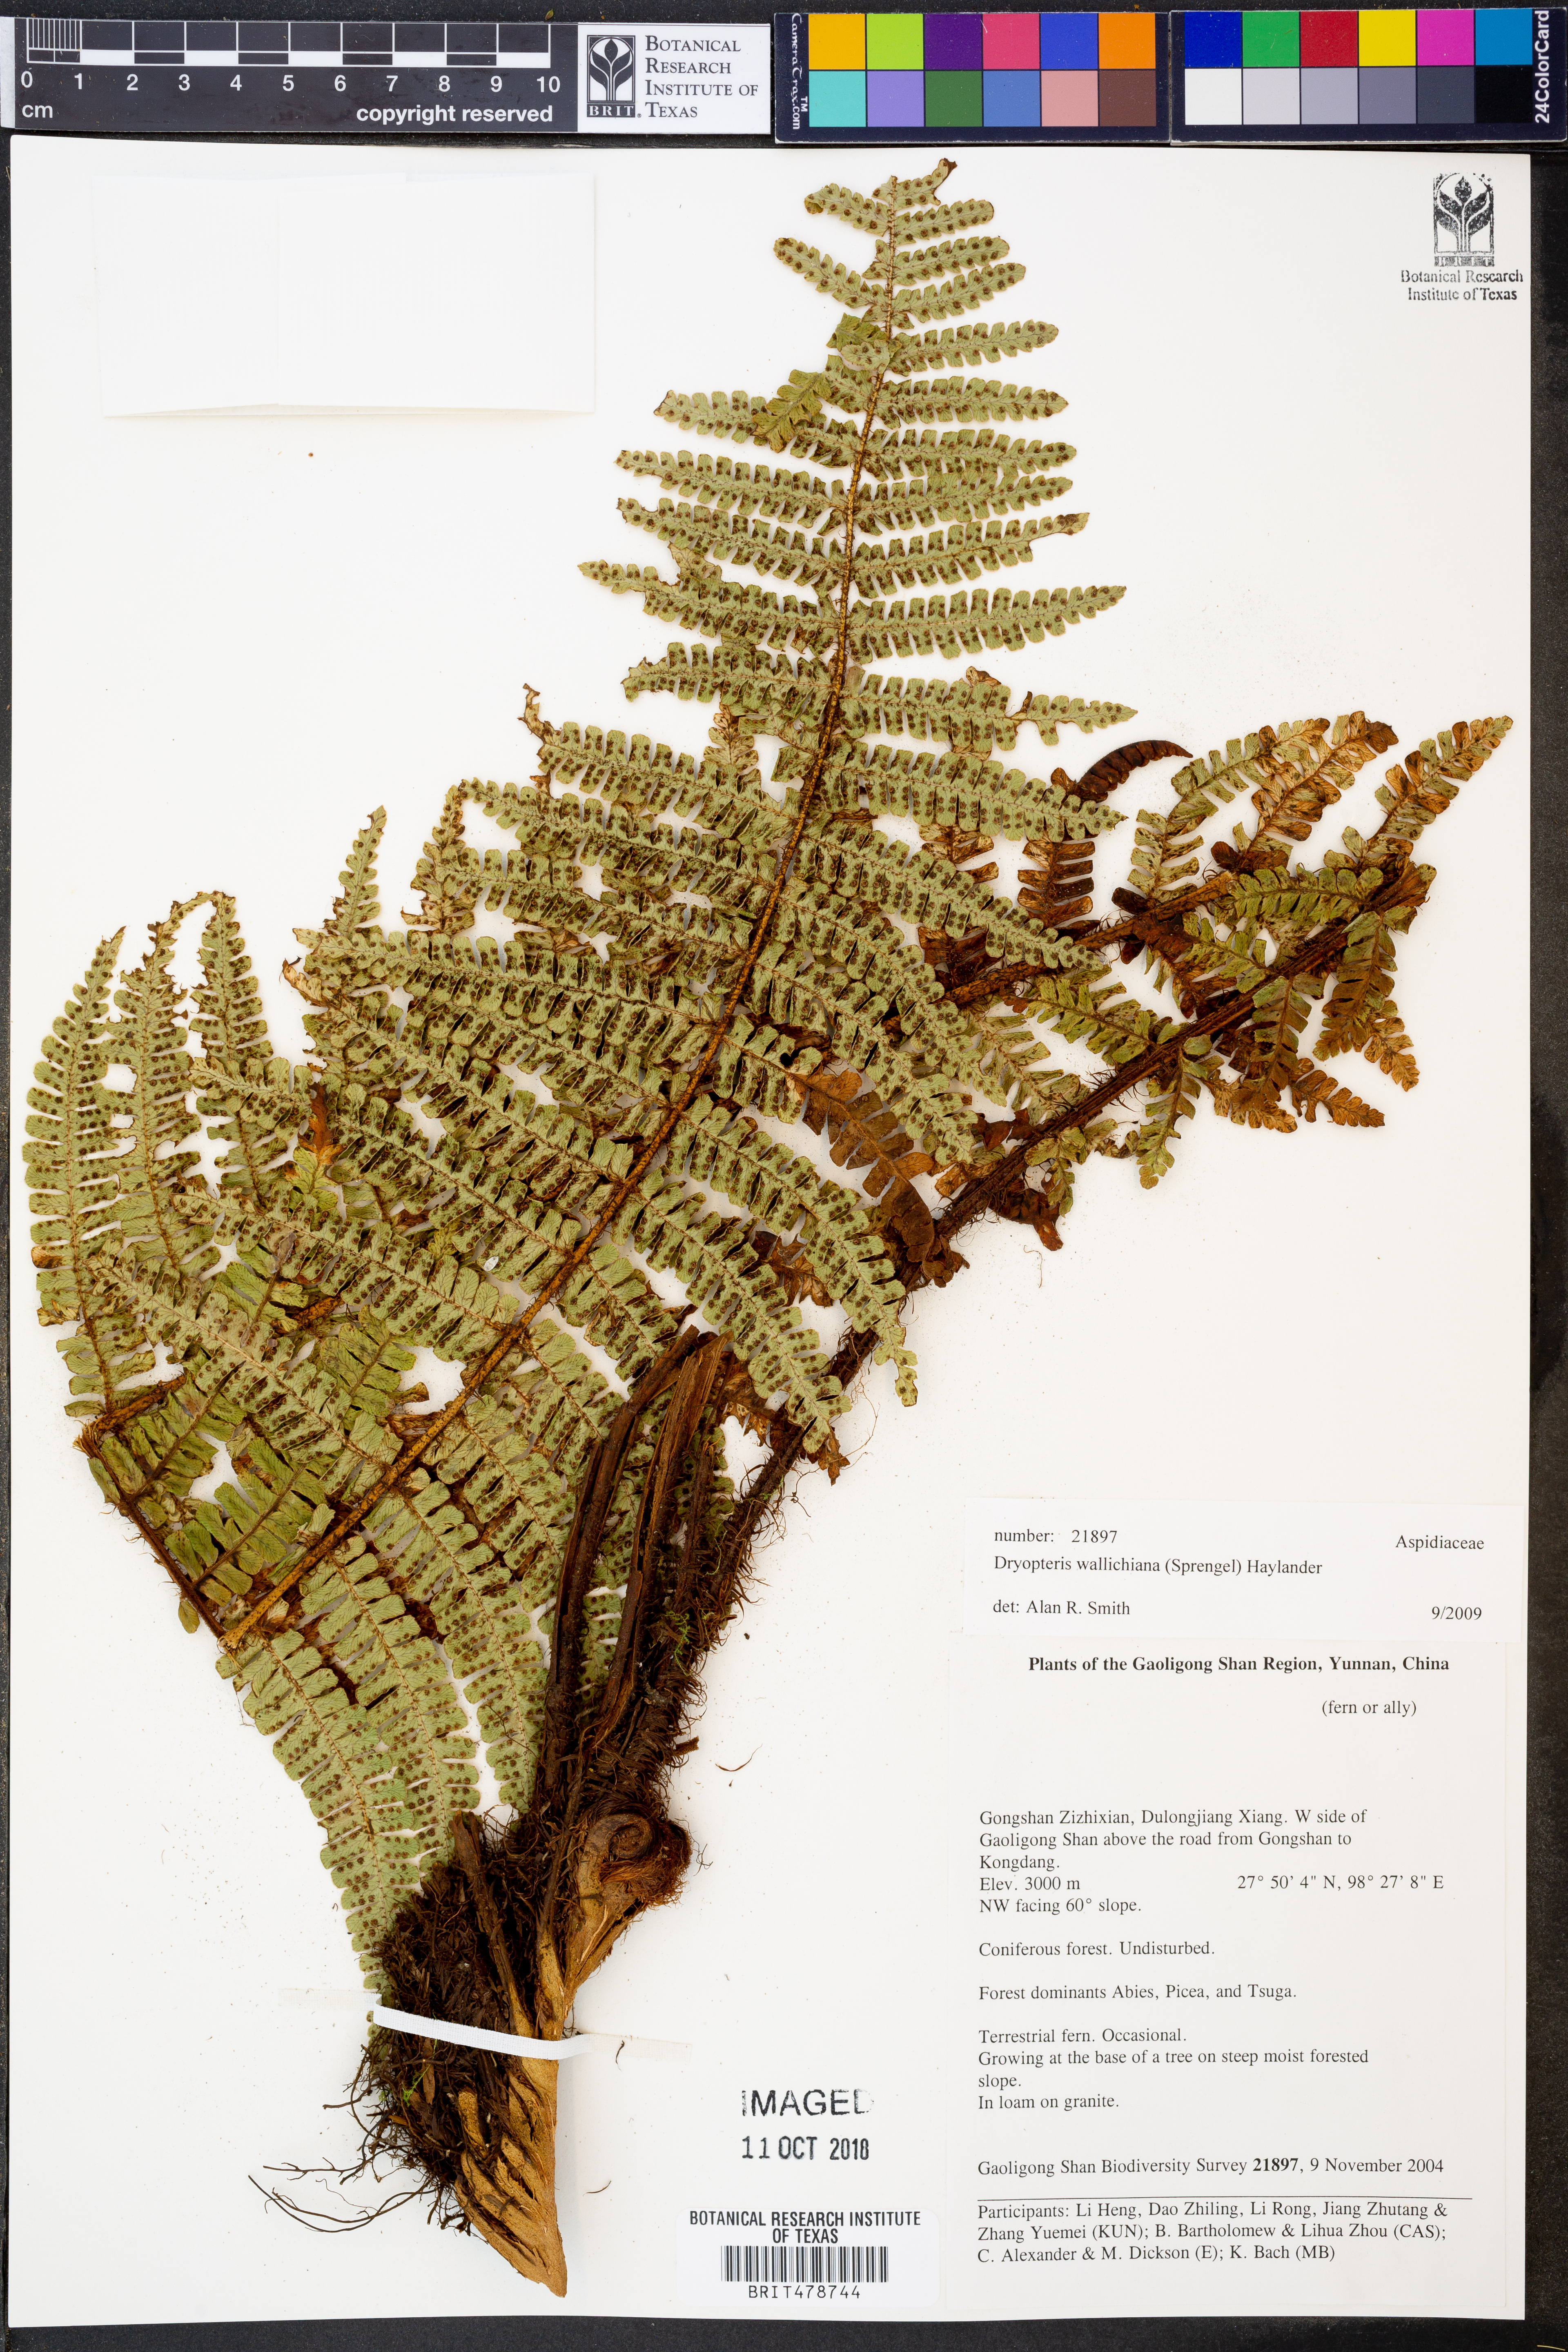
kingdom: Plantae
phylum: Tracheophyta
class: Polypodiopsida
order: Polypodiales
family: Dryopteridaceae
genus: Dryopteris
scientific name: Dryopteris wallichiana
